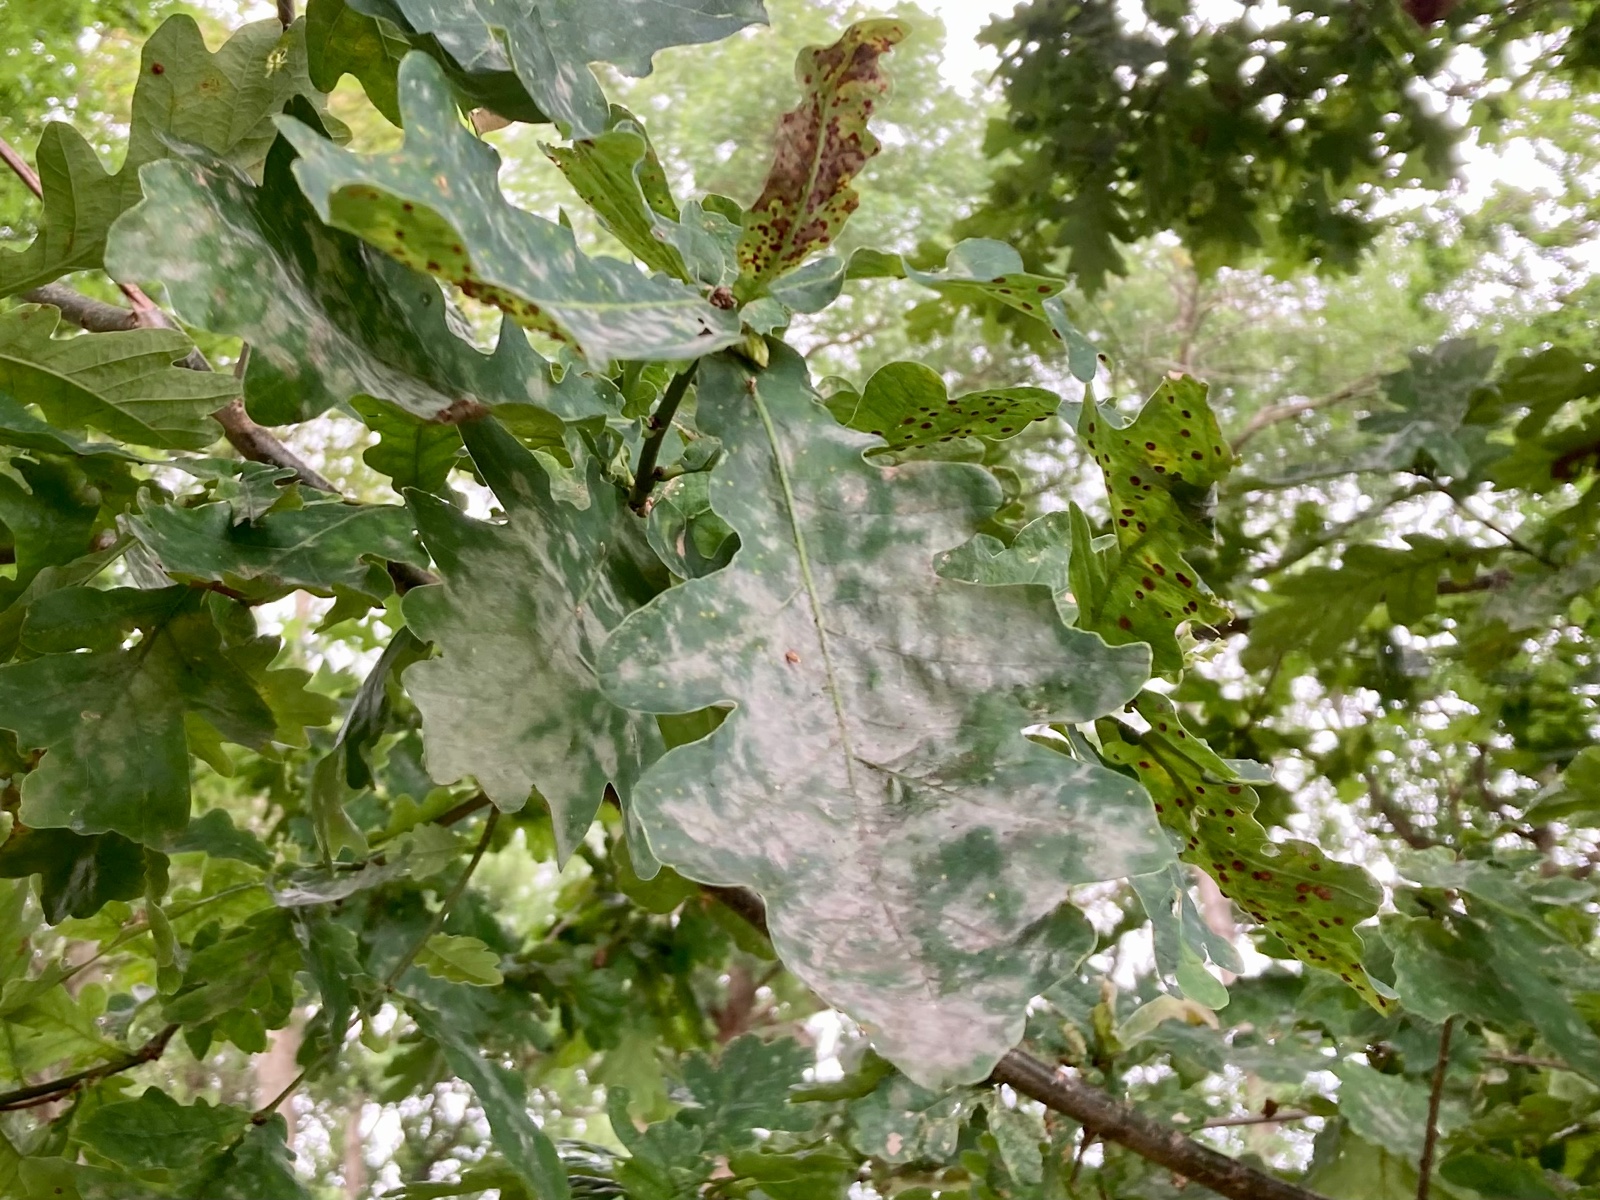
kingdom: Fungi
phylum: Ascomycota
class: Leotiomycetes
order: Helotiales
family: Erysiphaceae
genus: Erysiphe
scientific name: Erysiphe alphitoides
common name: ege-meldug
